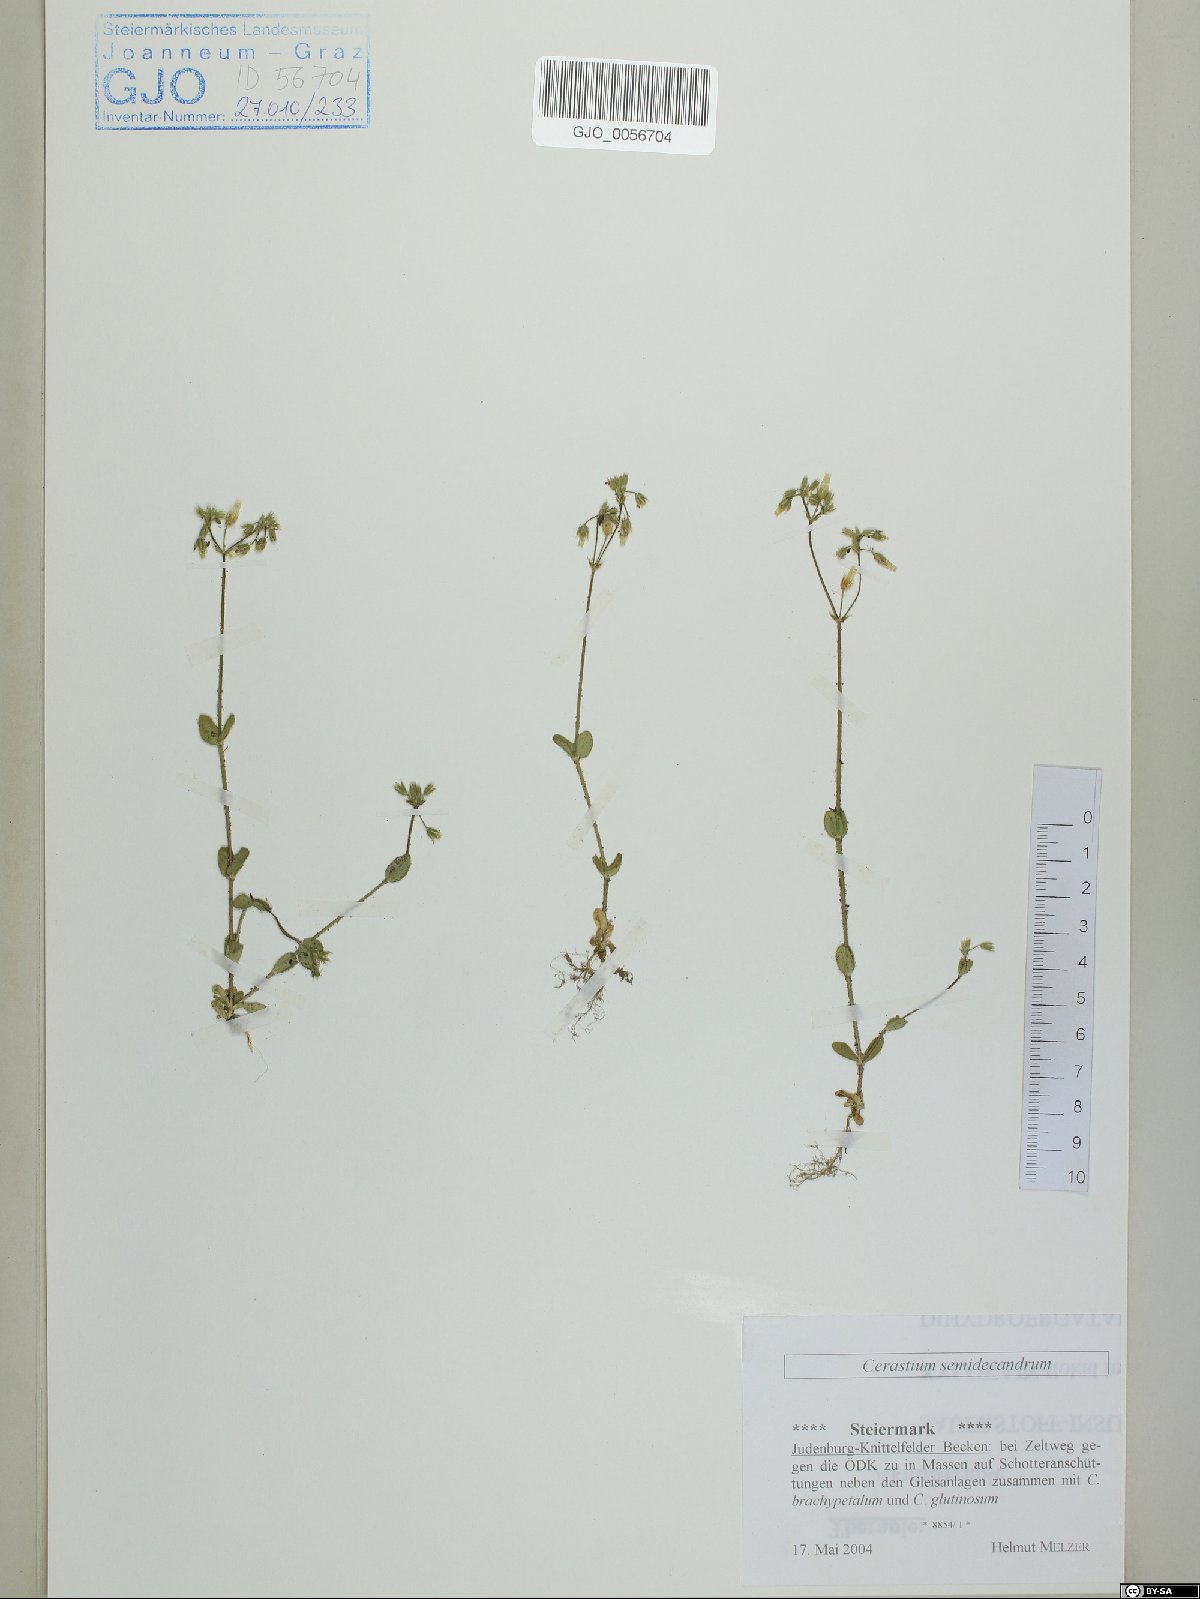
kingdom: Plantae
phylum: Tracheophyta
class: Magnoliopsida
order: Caryophyllales
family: Caryophyllaceae
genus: Cerastium
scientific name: Cerastium semidecandrum
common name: Little mouse-ear
